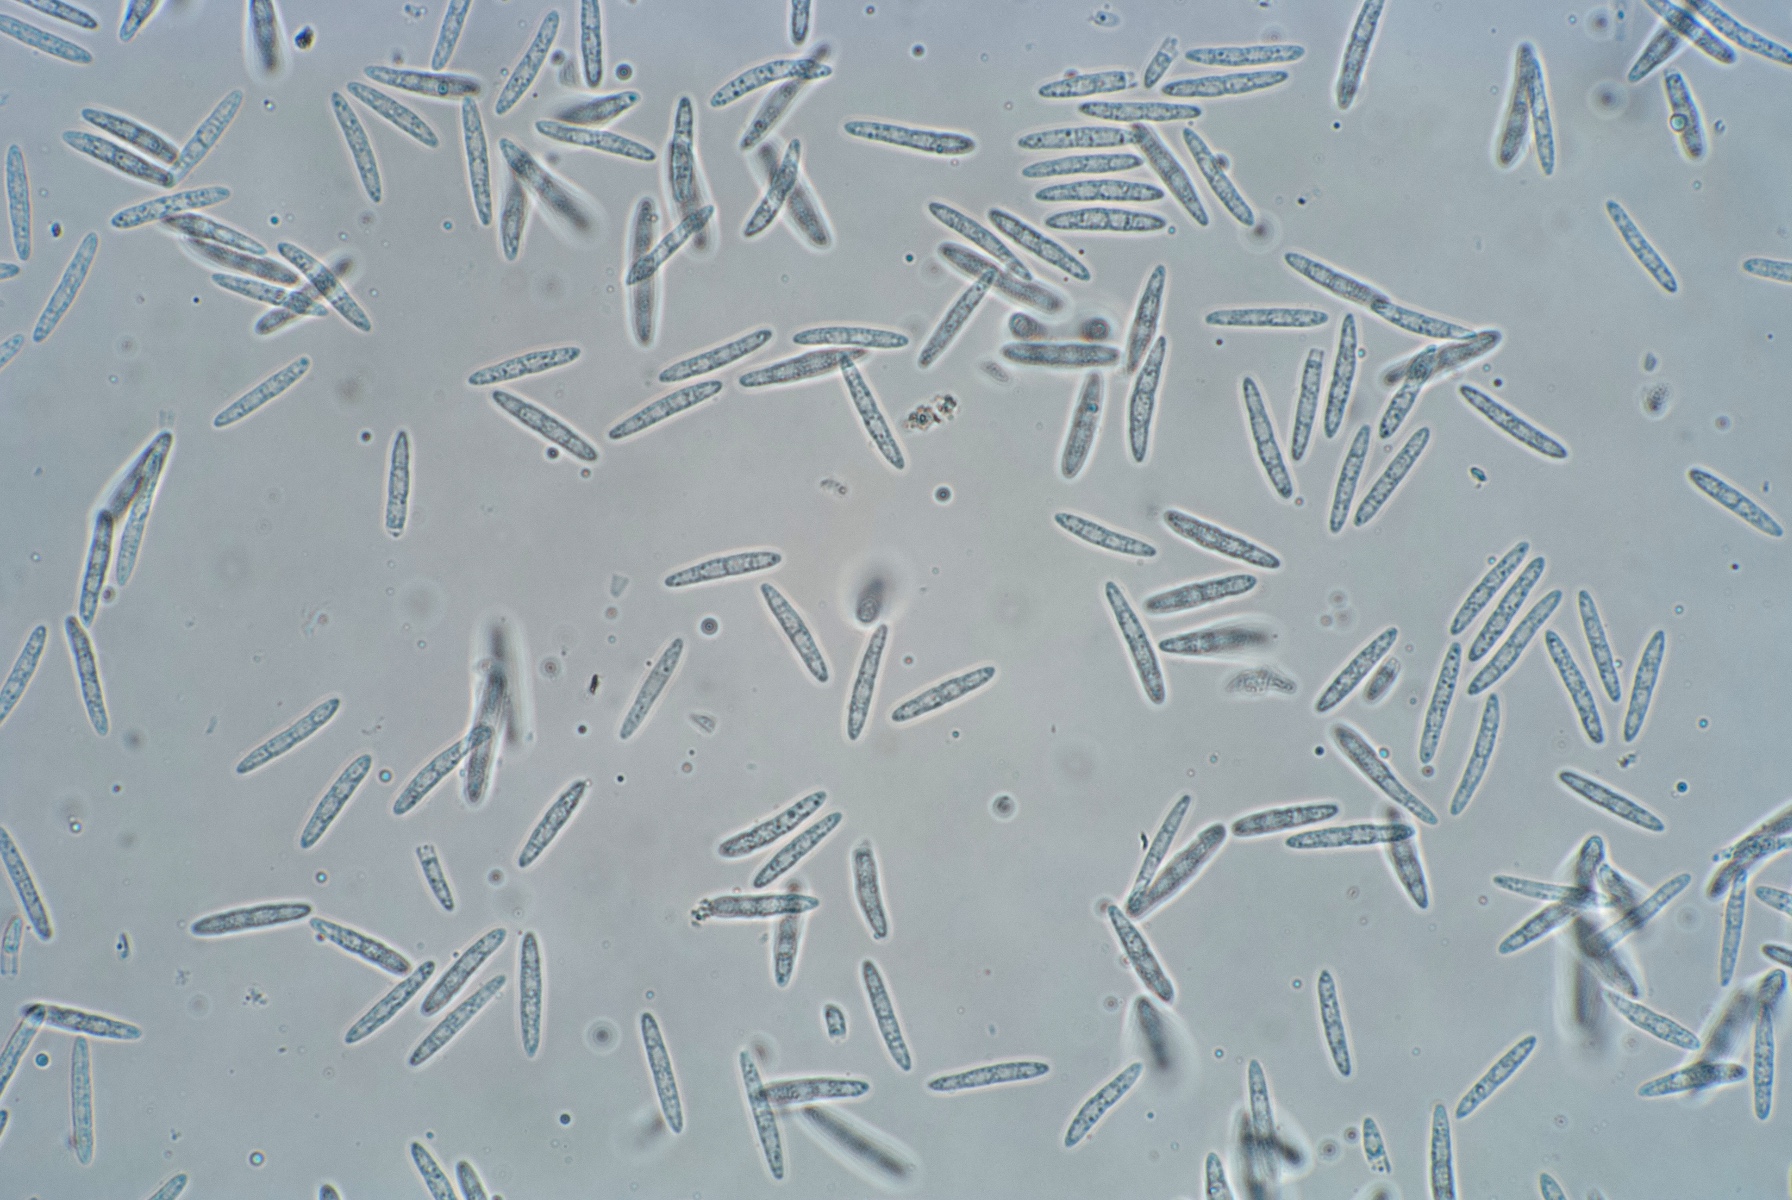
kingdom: Fungi
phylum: Ascomycota
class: Leotiomycetes
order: Helotiales
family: Godroniaceae
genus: Godronia
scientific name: Godronia uberiformis
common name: solbær-urneskive
